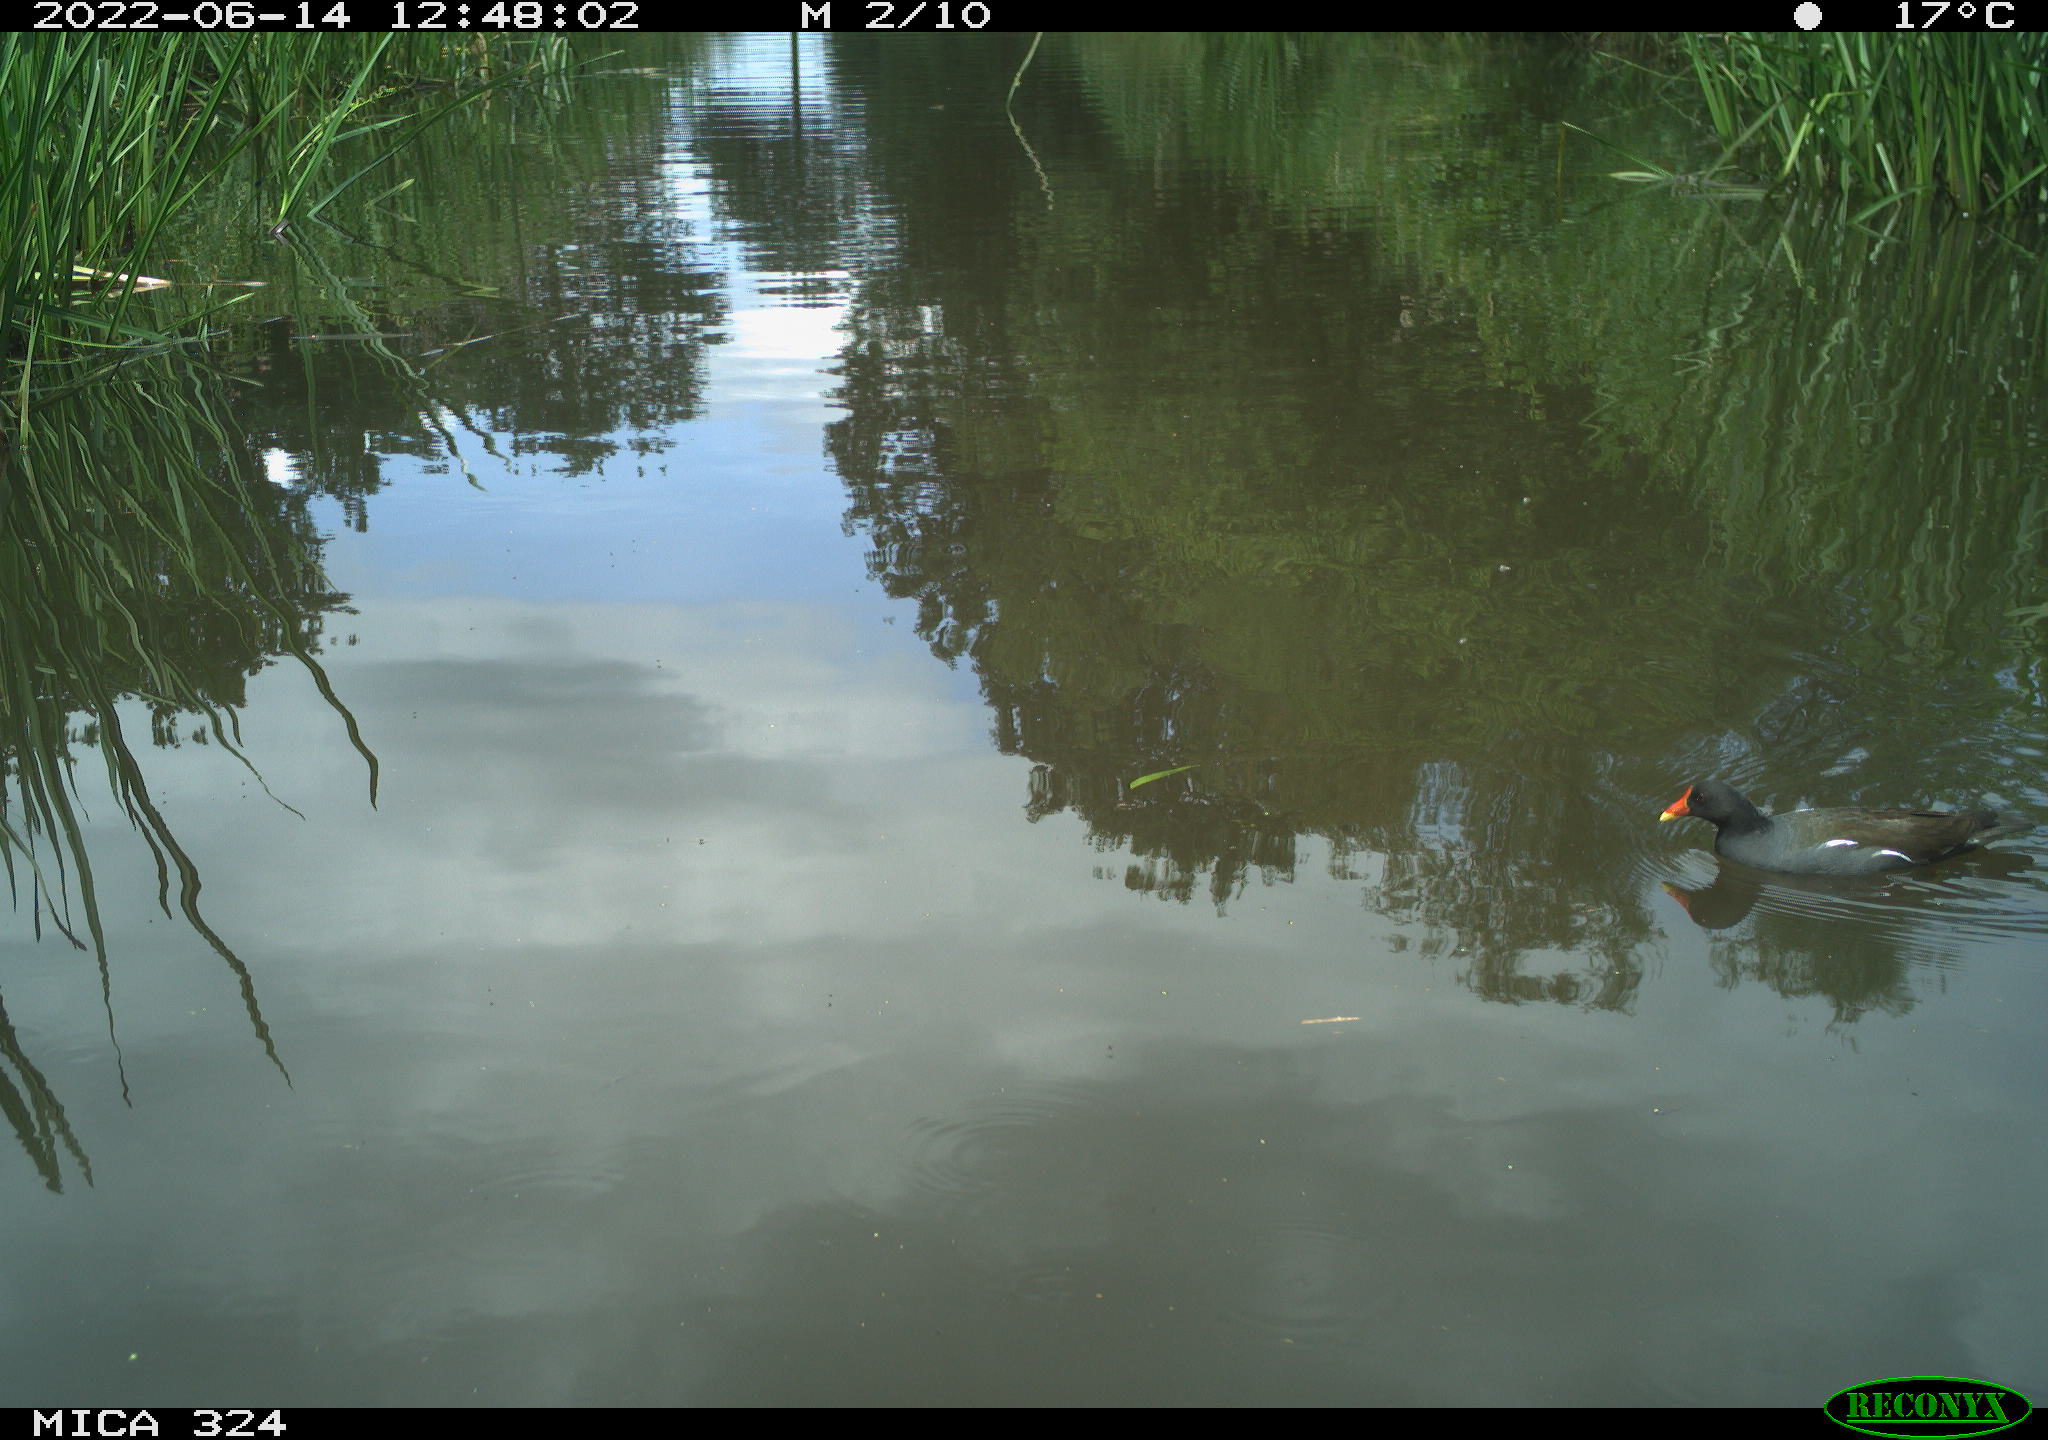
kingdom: Animalia
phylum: Chordata
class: Aves
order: Gruiformes
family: Rallidae
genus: Gallinula
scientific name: Gallinula chloropus
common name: Common moorhen
